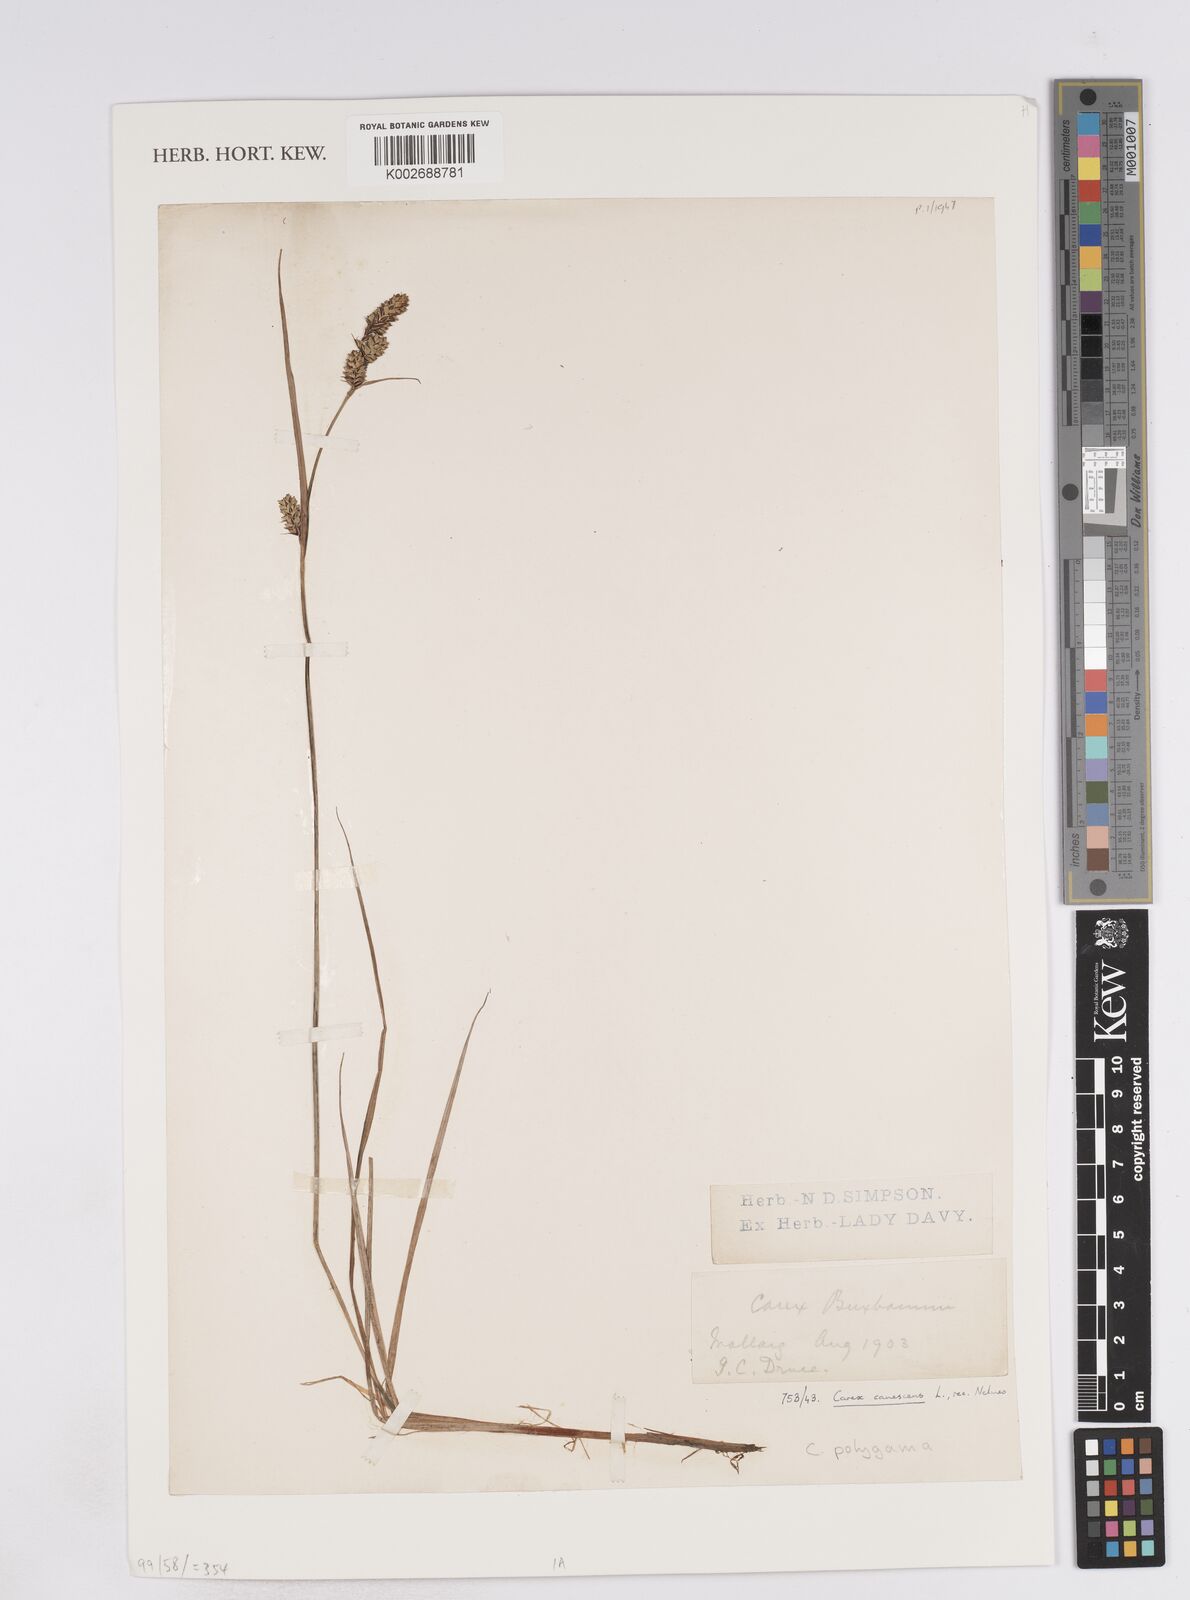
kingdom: Plantae
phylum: Tracheophyta
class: Liliopsida
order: Poales
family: Cyperaceae
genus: Carex
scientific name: Carex buxbaumii
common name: Club sedge
